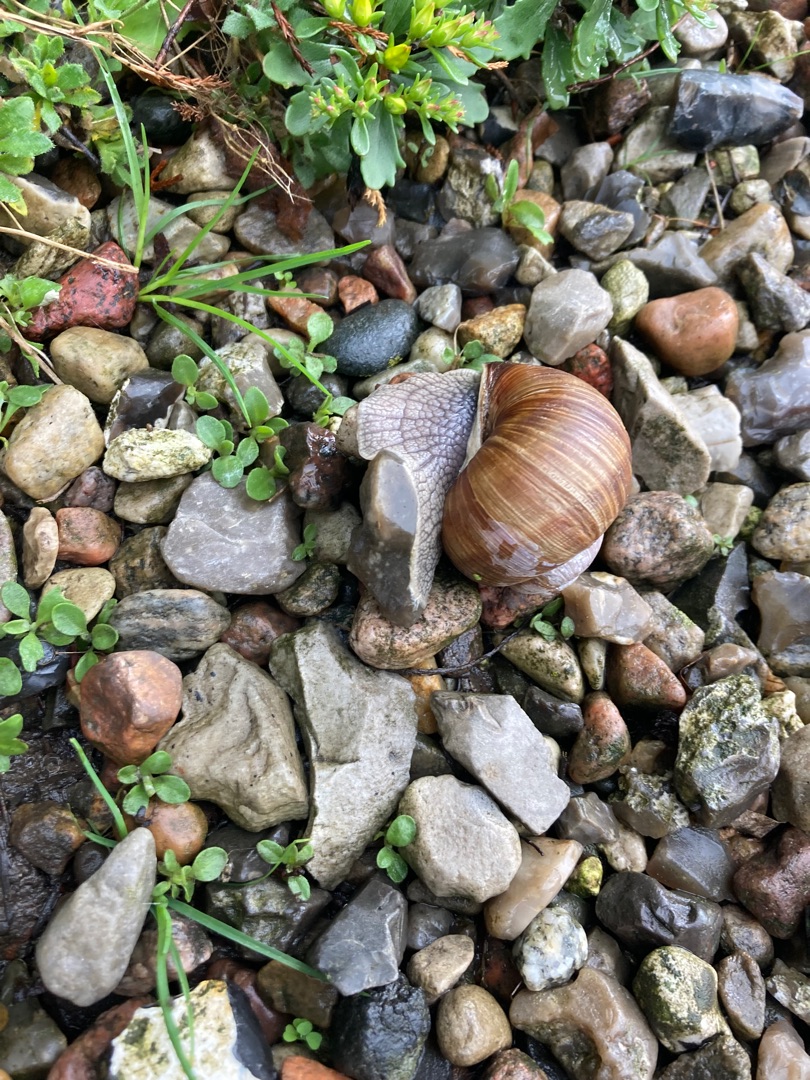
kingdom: Animalia
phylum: Mollusca
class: Gastropoda
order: Stylommatophora
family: Helicidae
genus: Helix
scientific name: Helix pomatia
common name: Vinbjergsnegl
